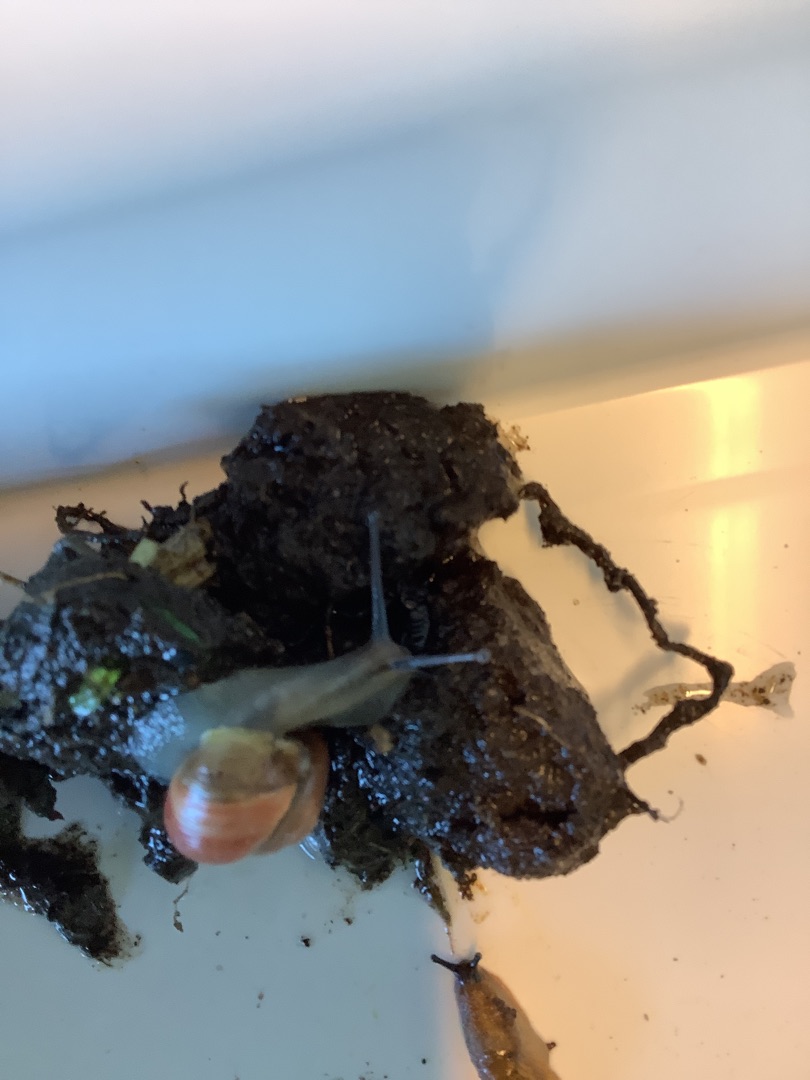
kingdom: Animalia
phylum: Mollusca
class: Gastropoda
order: Stylommatophora
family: Helicidae
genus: Cepaea
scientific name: Cepaea hortensis
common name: Havesnegl
